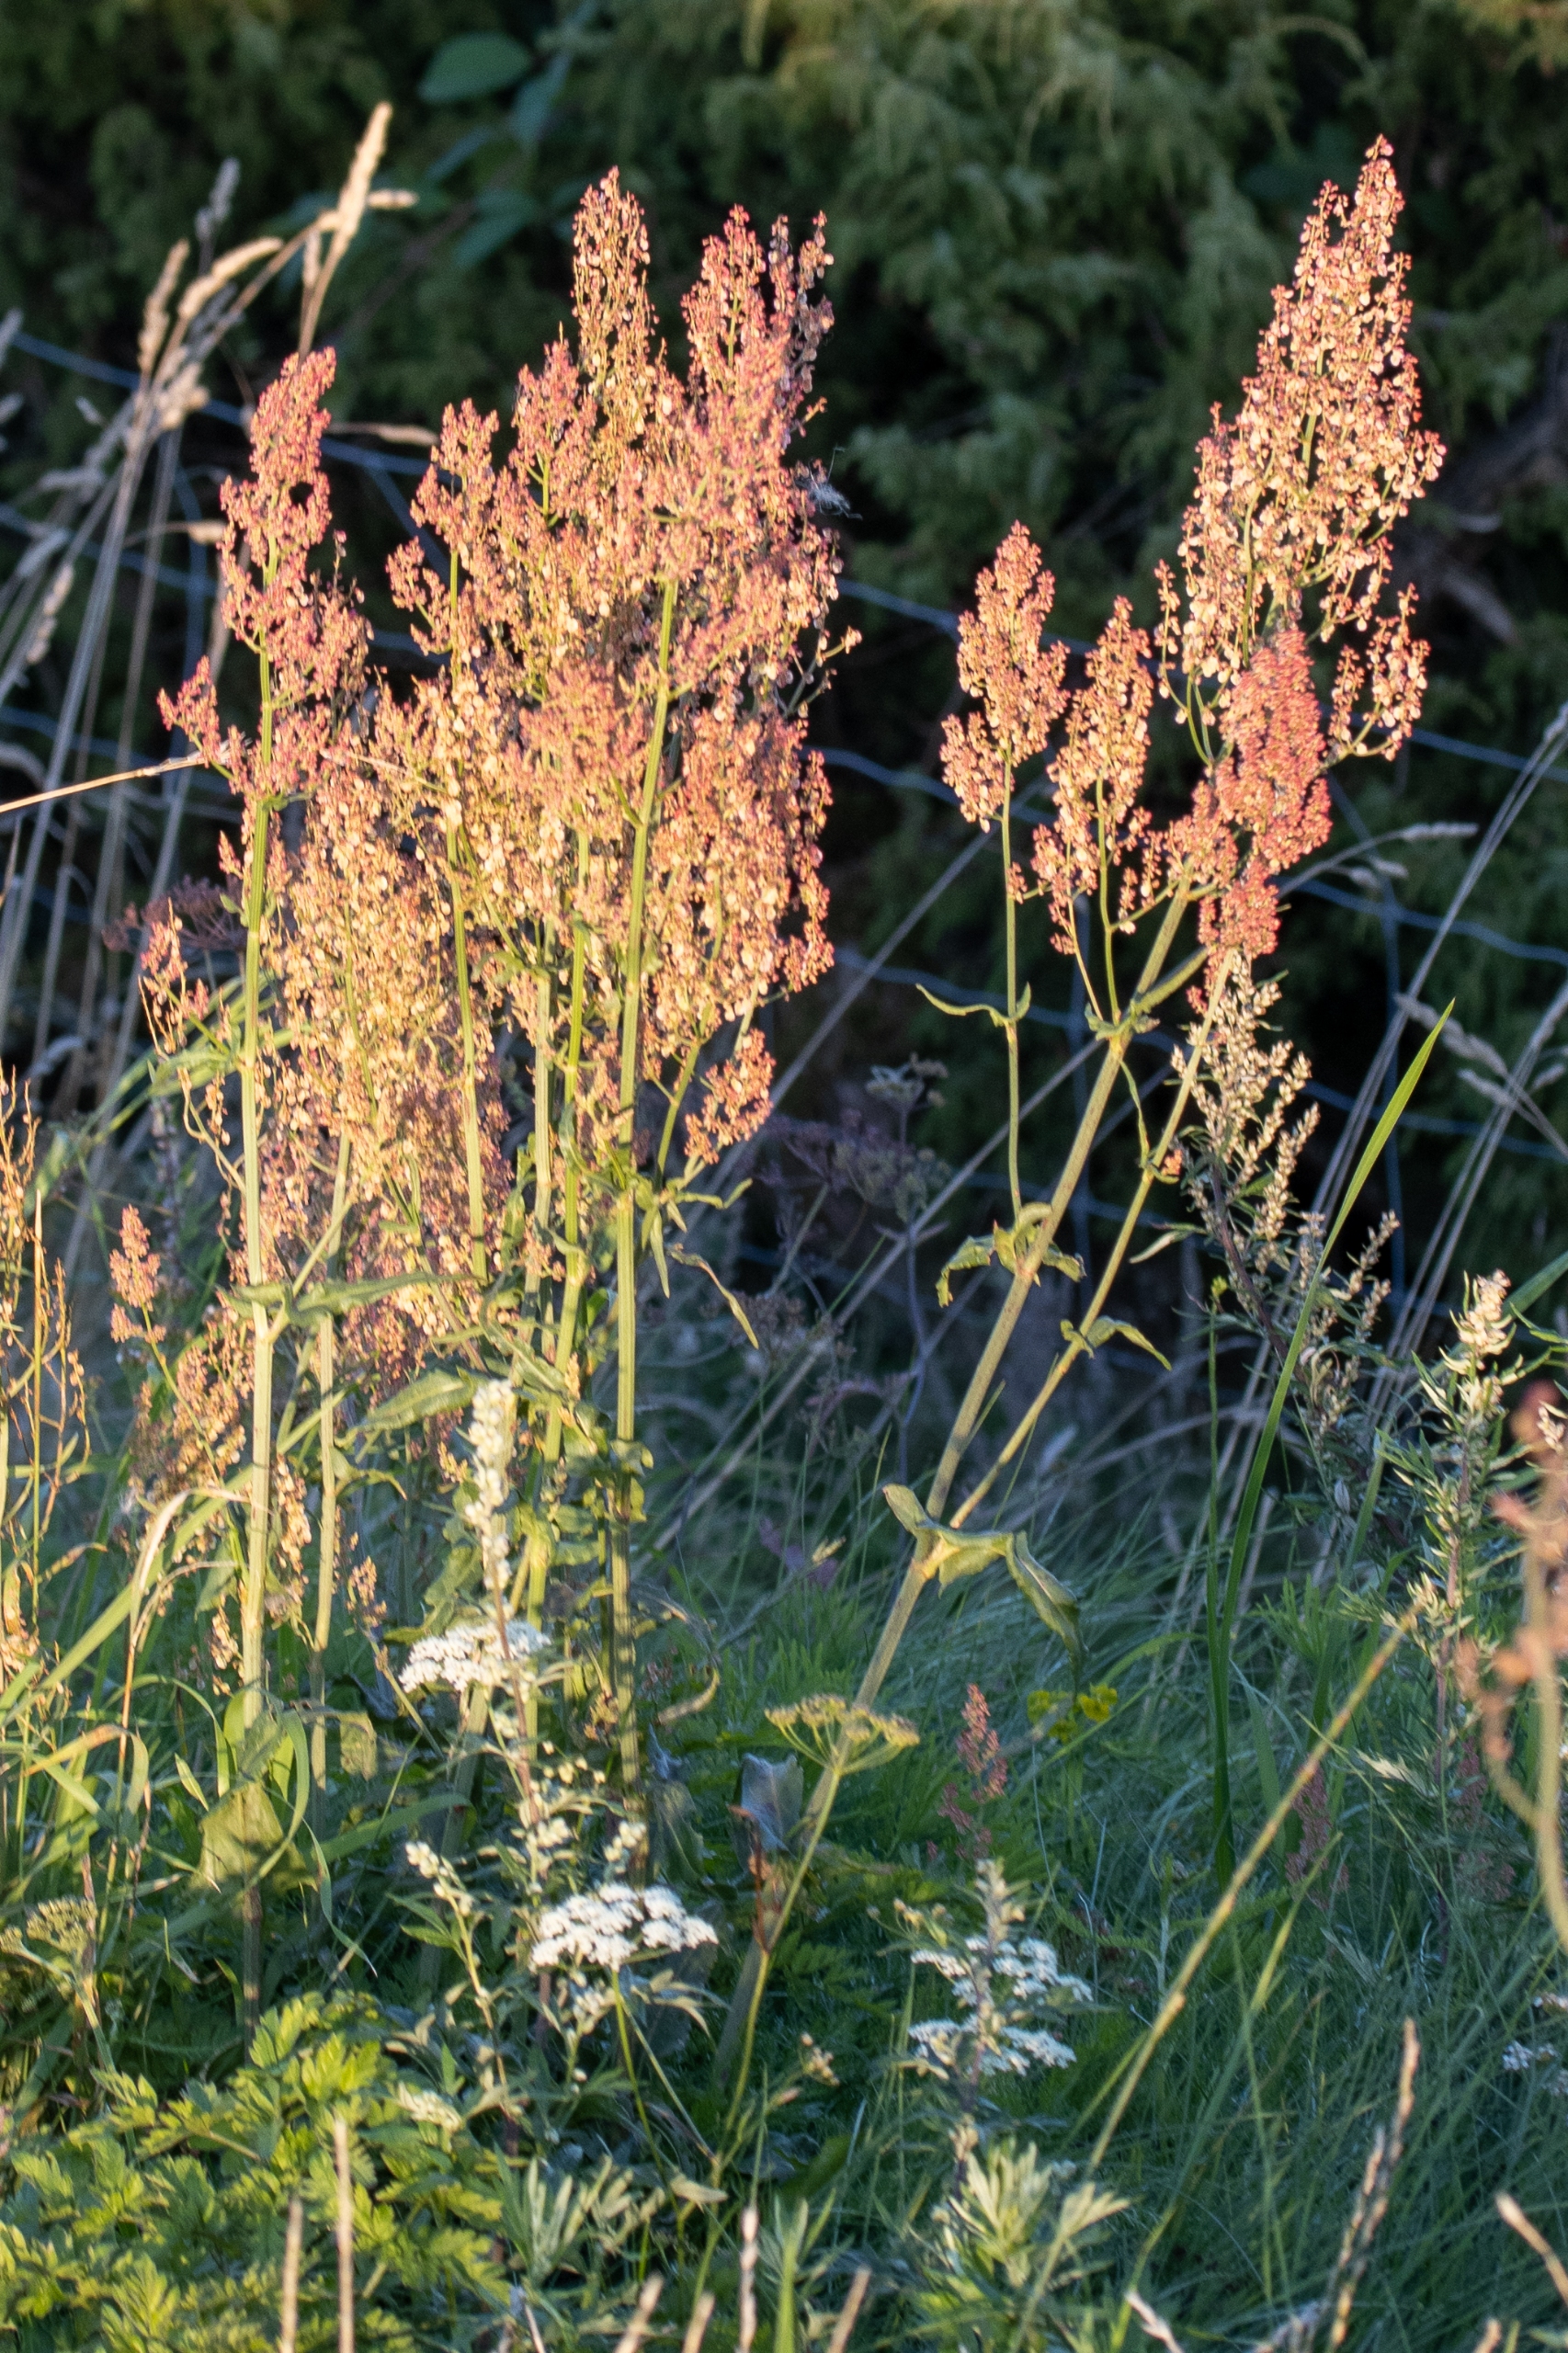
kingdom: Plantae
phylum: Tracheophyta
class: Magnoliopsida
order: Caryophyllales
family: Polygonaceae
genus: Rumex
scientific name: Rumex thyrsiflorus
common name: Dusk-syre
